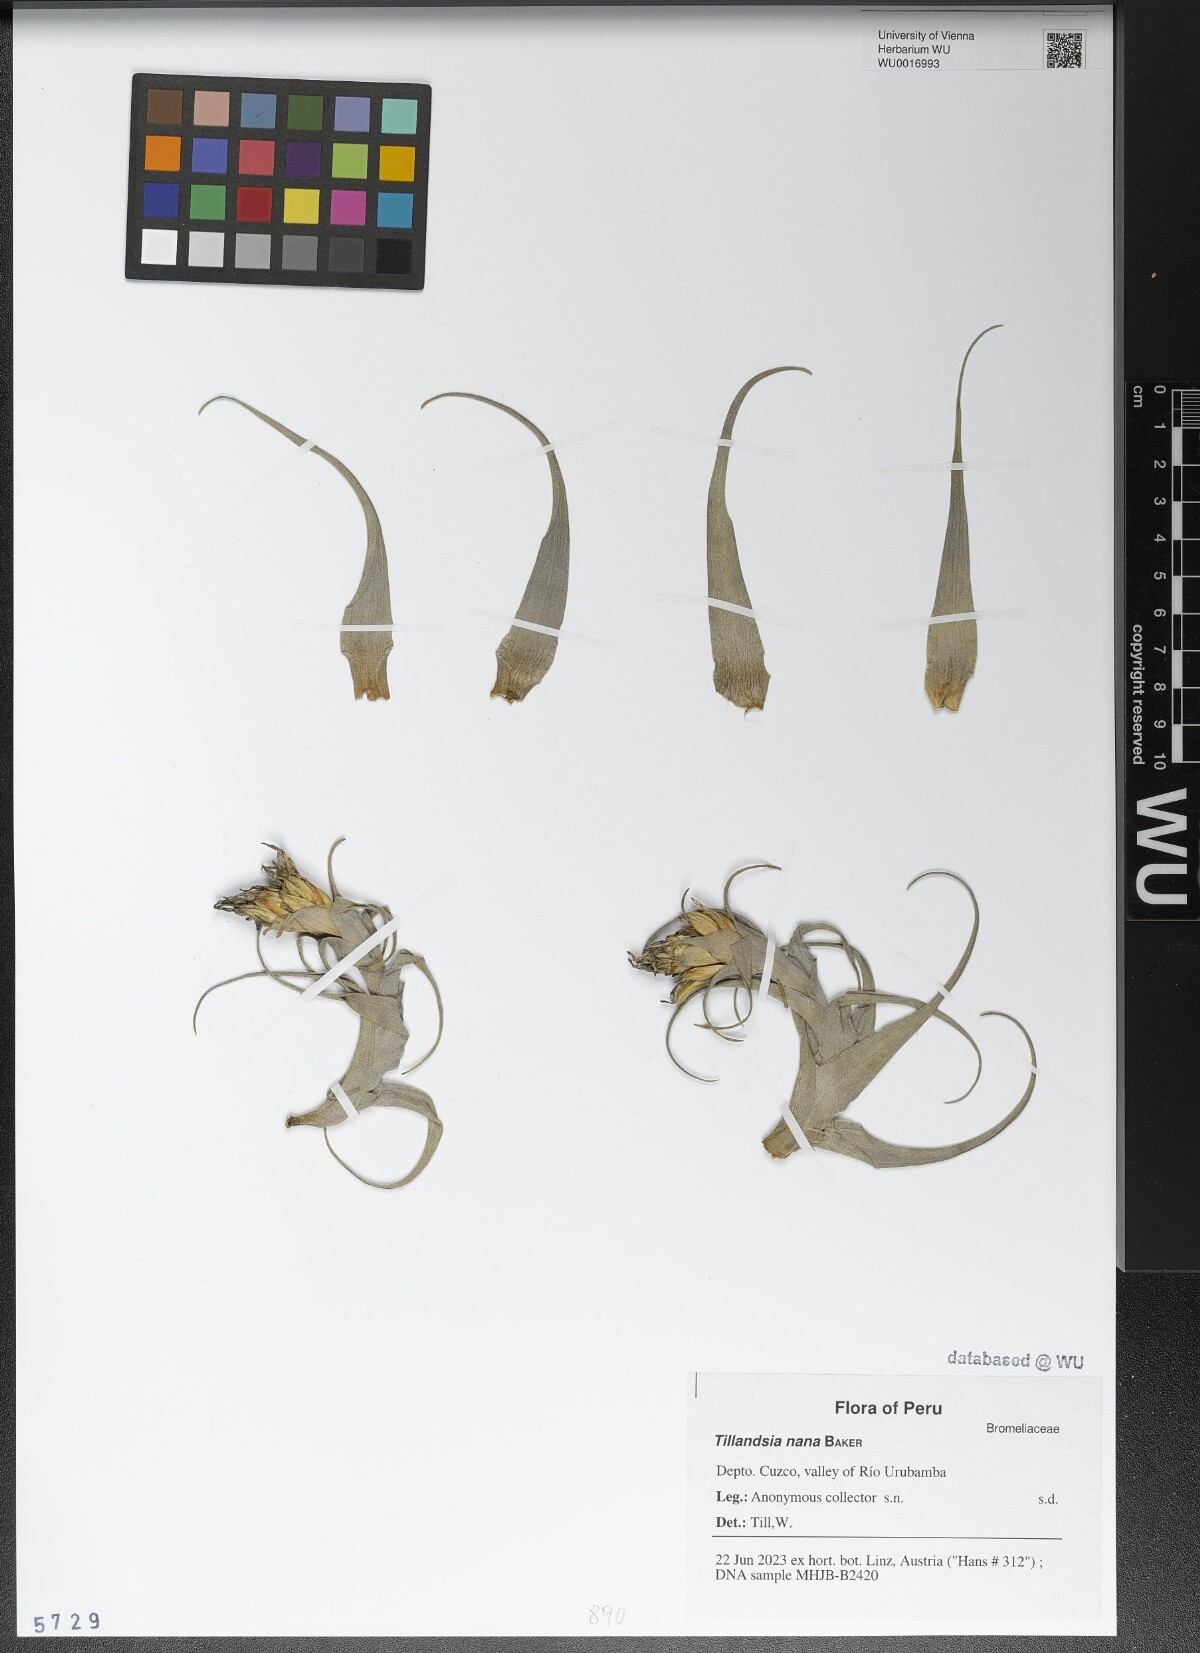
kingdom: Plantae
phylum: Tracheophyta
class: Liliopsida
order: Poales
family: Bromeliaceae
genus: Tillandsia
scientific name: Tillandsia nana
